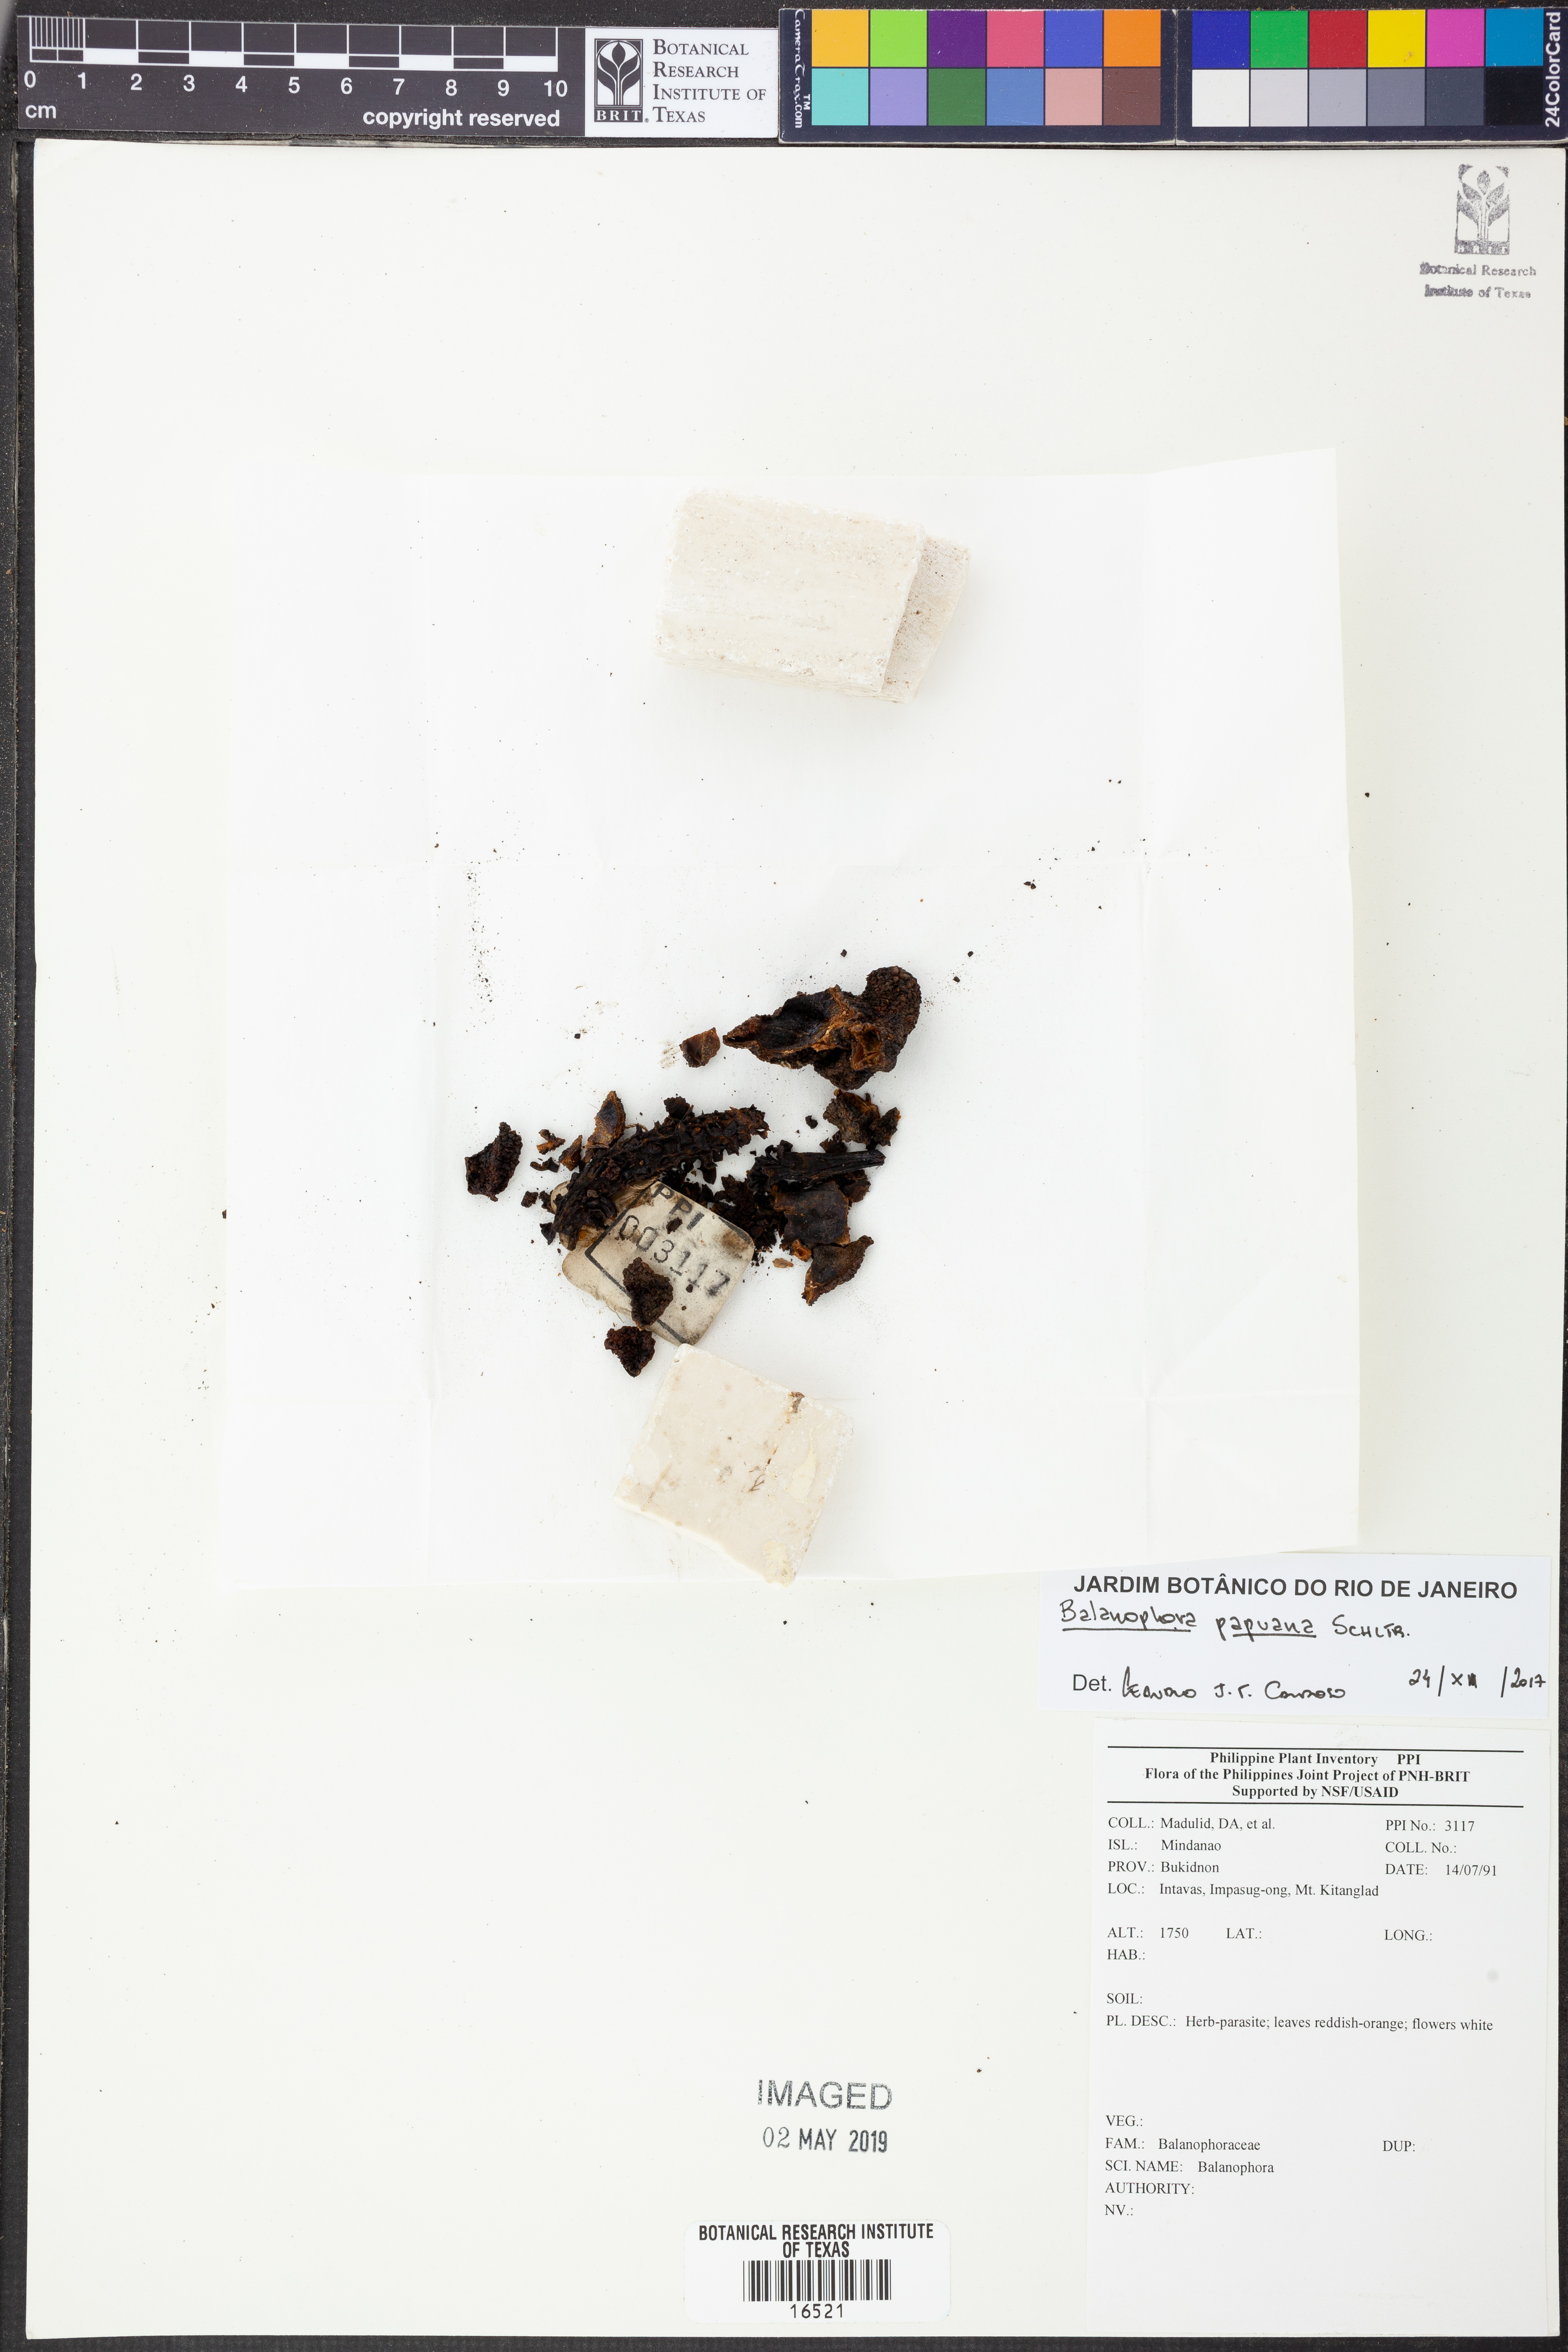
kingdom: Plantae
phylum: Tracheophyta
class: Magnoliopsida
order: Santalales
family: Balanophoraceae
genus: Balanophora
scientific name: Balanophora papuana
